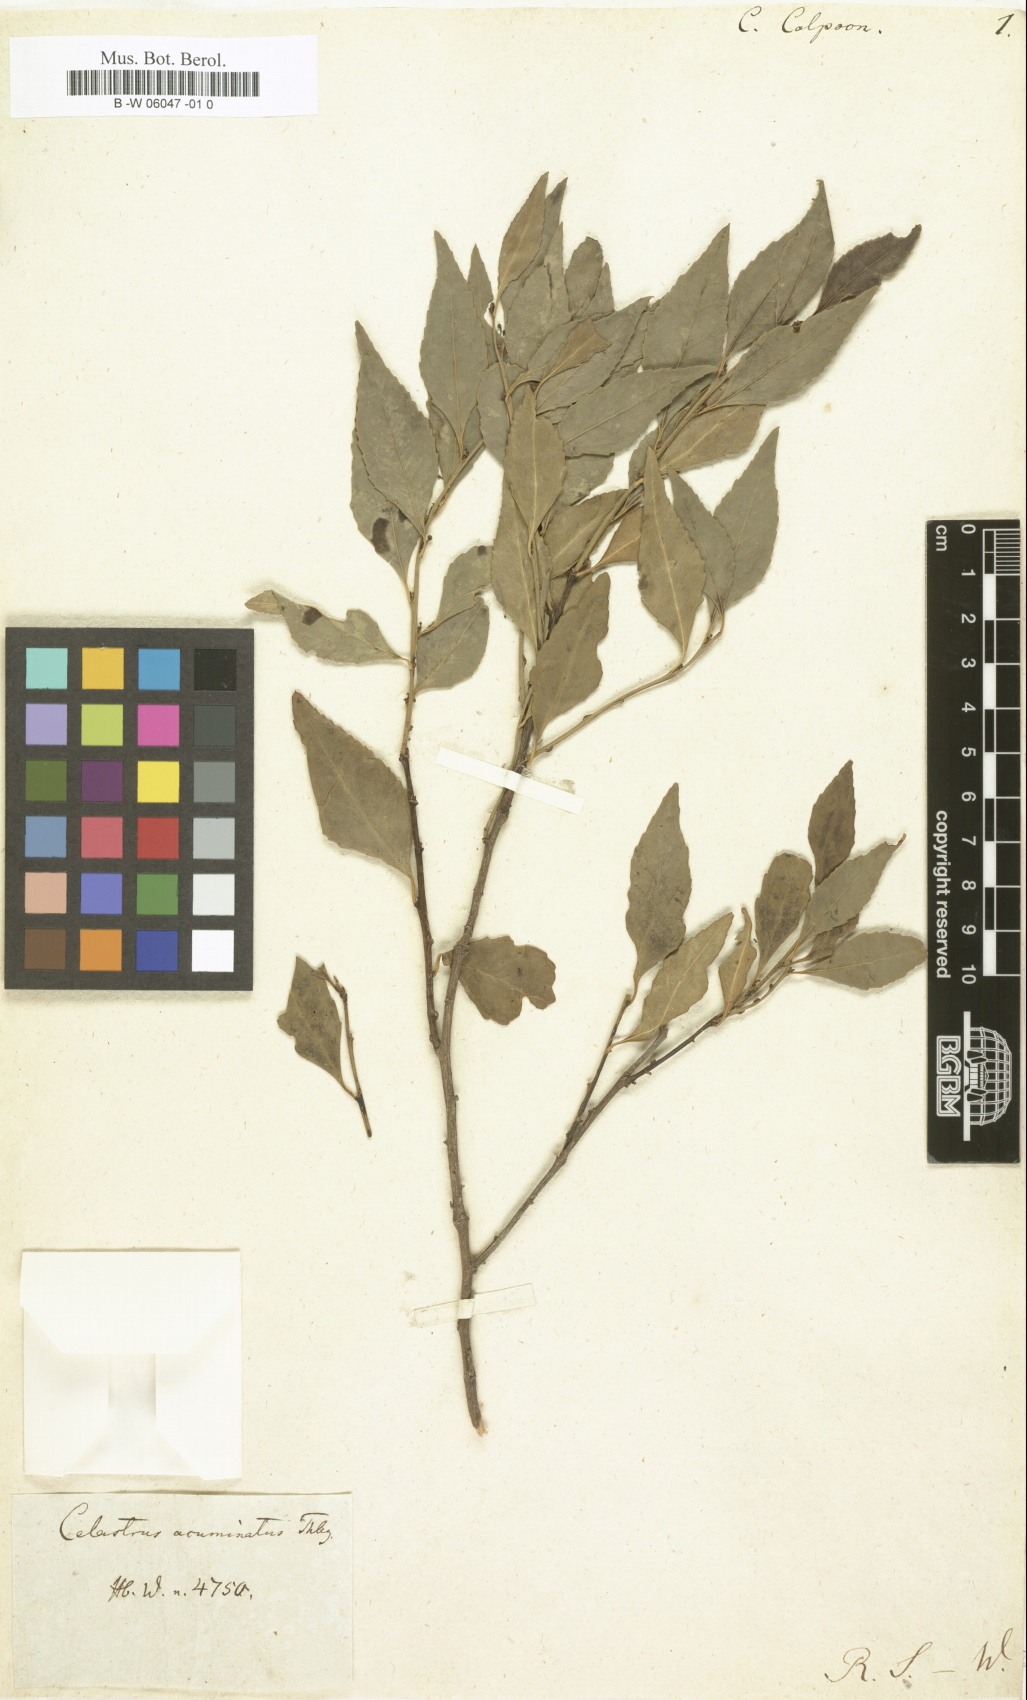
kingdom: Plantae
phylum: Tracheophyta
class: Magnoliopsida
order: Celastrales
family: Celastraceae
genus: Cassine
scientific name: Cassine peragua
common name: Cape saffron
